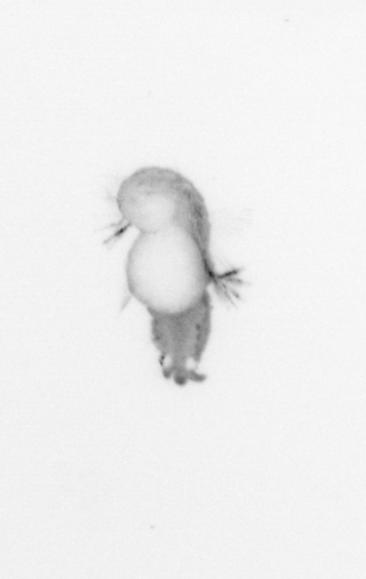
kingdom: Animalia
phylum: Annelida
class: Polychaeta
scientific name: Polychaeta
